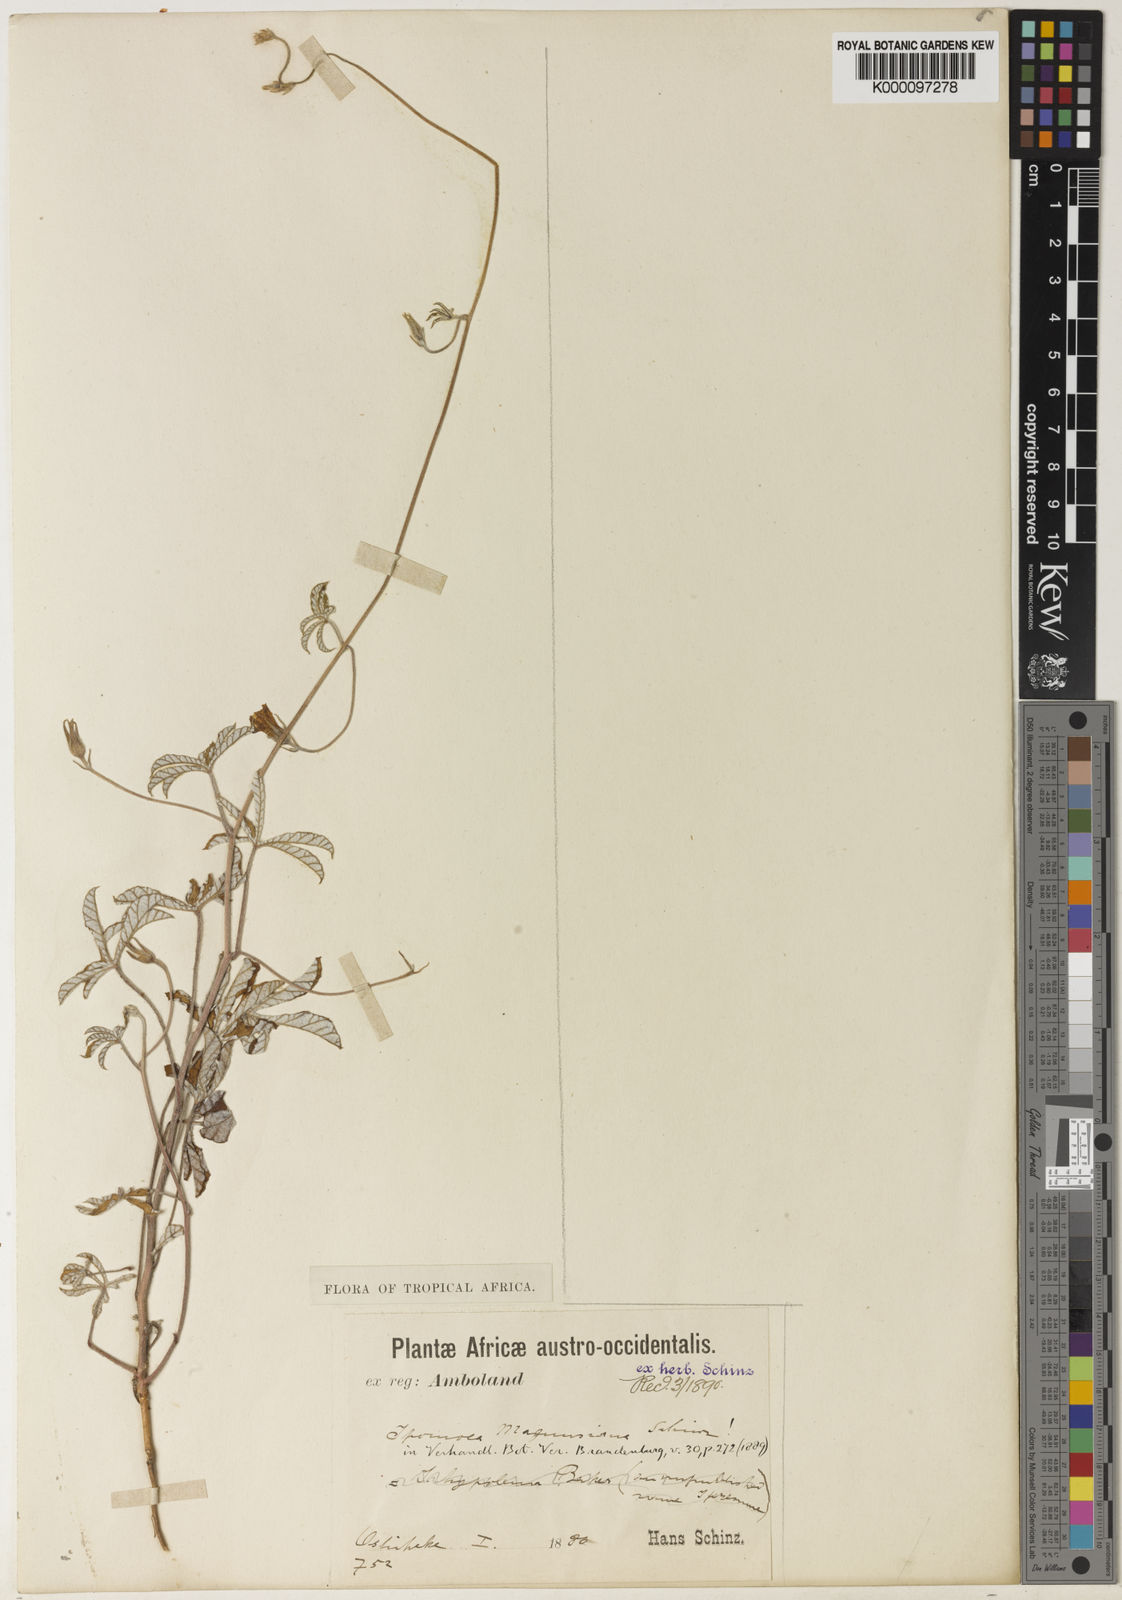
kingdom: Plantae
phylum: Tracheophyta
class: Magnoliopsida
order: Solanales
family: Convolvulaceae
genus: Ipomoea
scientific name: Ipomoea magnusiana
